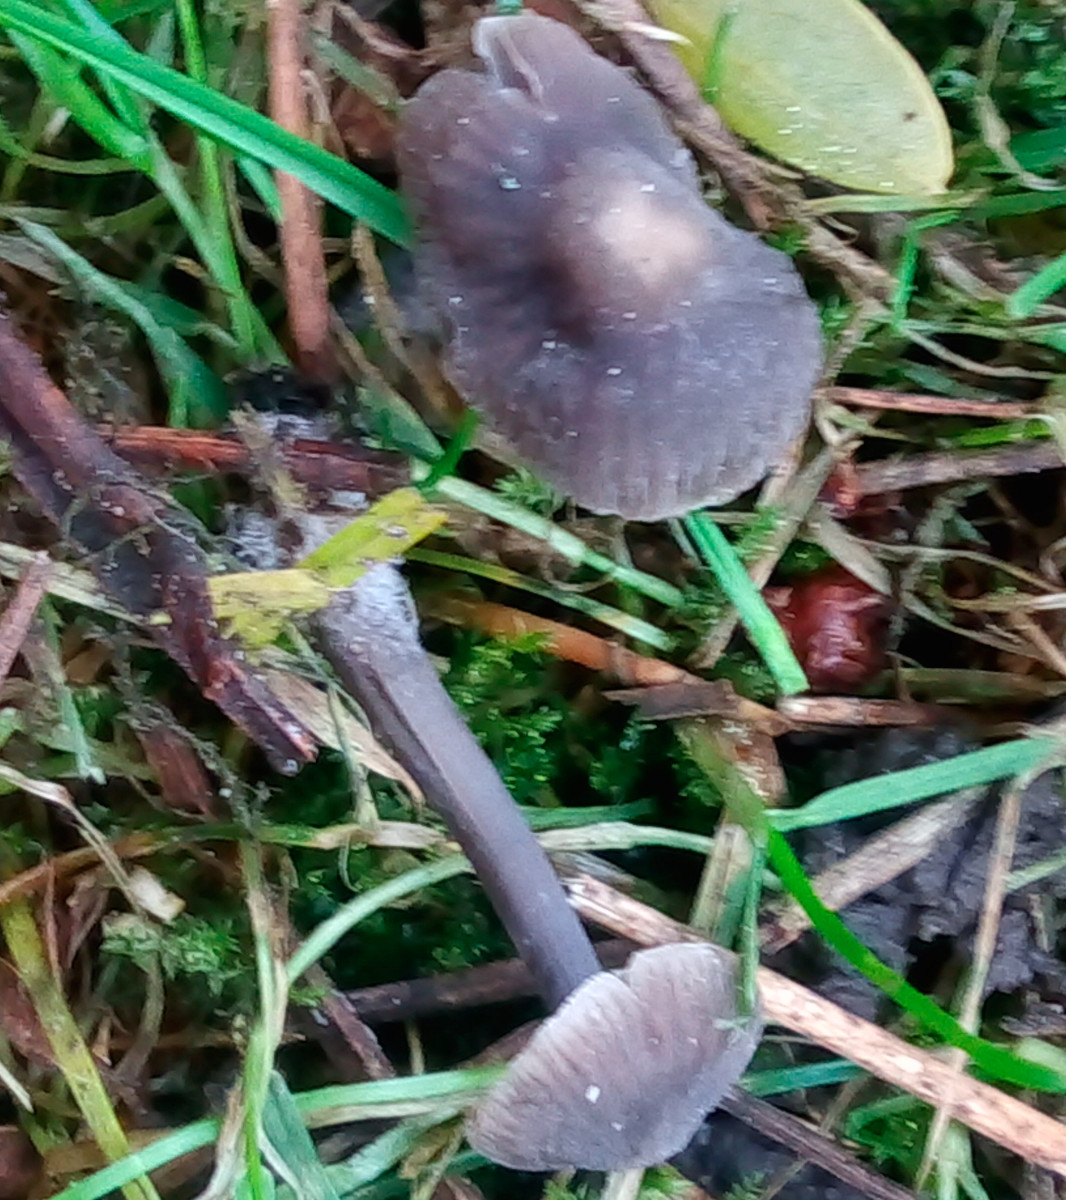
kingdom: Fungi
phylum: Basidiomycota
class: Agaricomycetes
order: Agaricales
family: Mycenaceae
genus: Mycena
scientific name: Mycena aetites
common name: plæne-huesvamp
